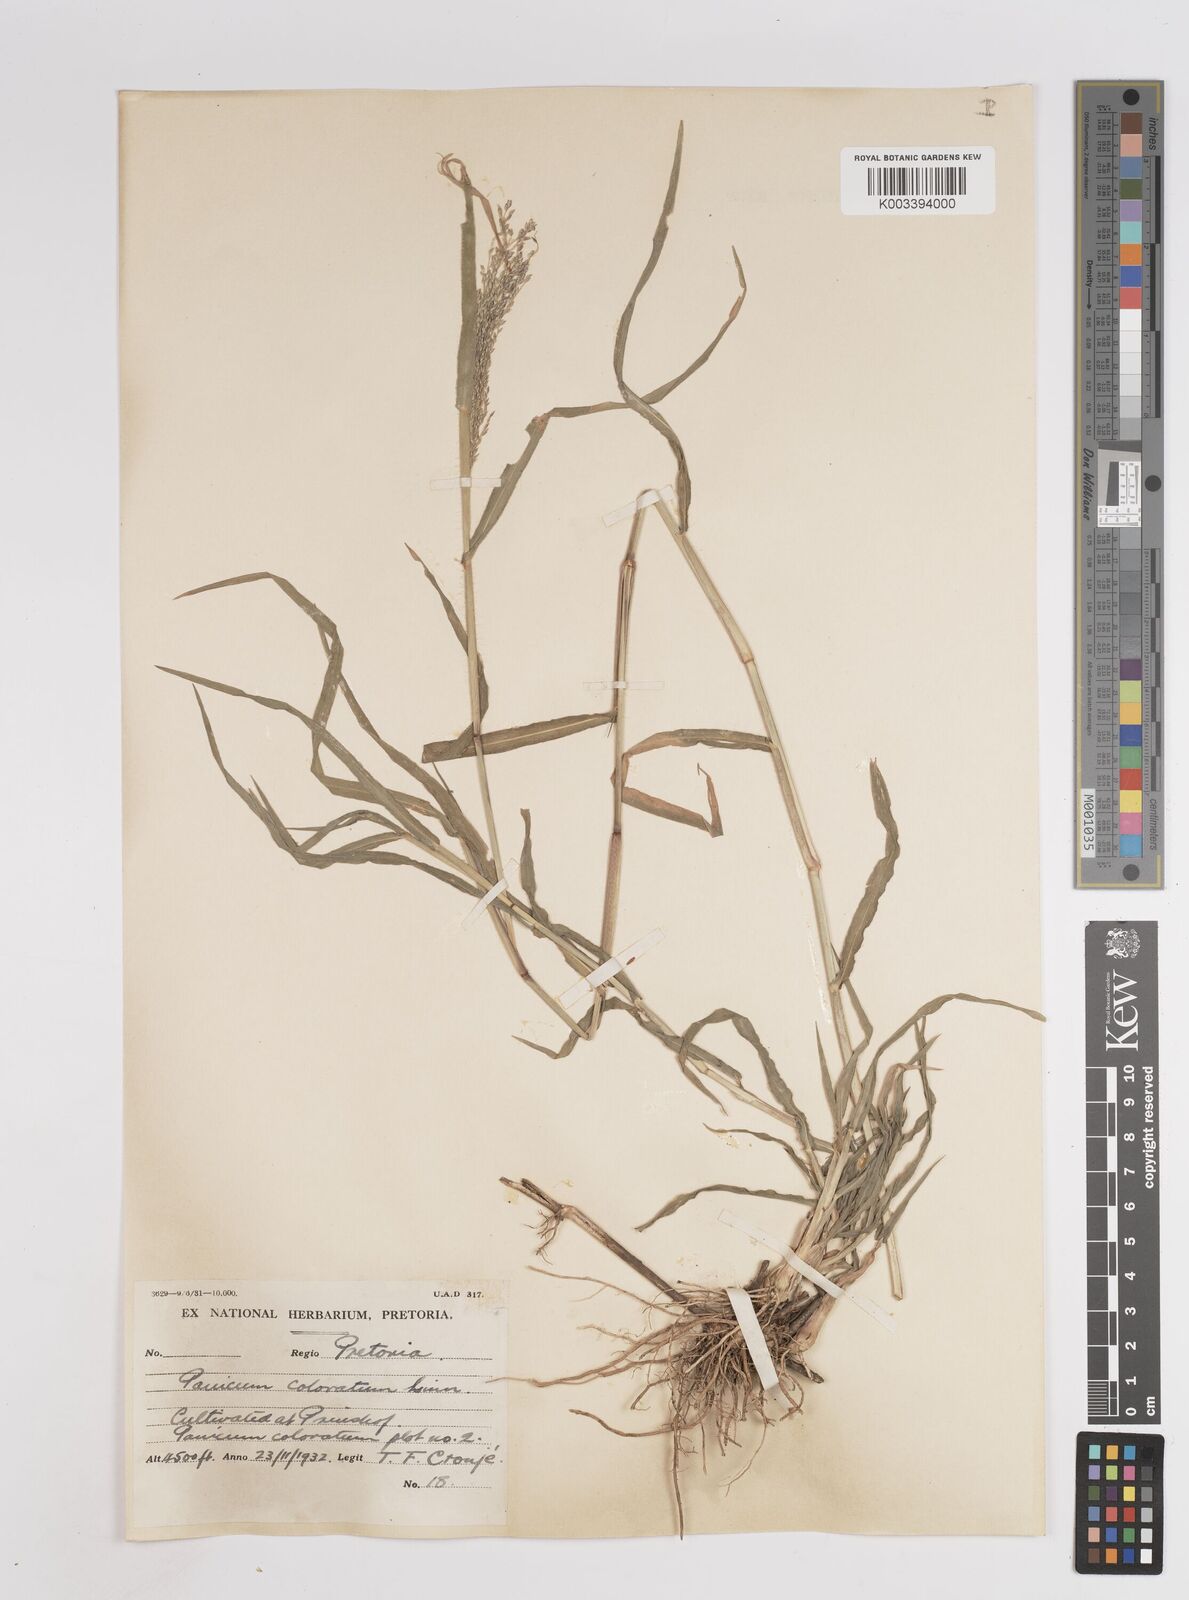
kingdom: Plantae
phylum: Tracheophyta
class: Liliopsida
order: Poales
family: Poaceae
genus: Panicum
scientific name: Panicum coloratum
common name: Kleingrass
